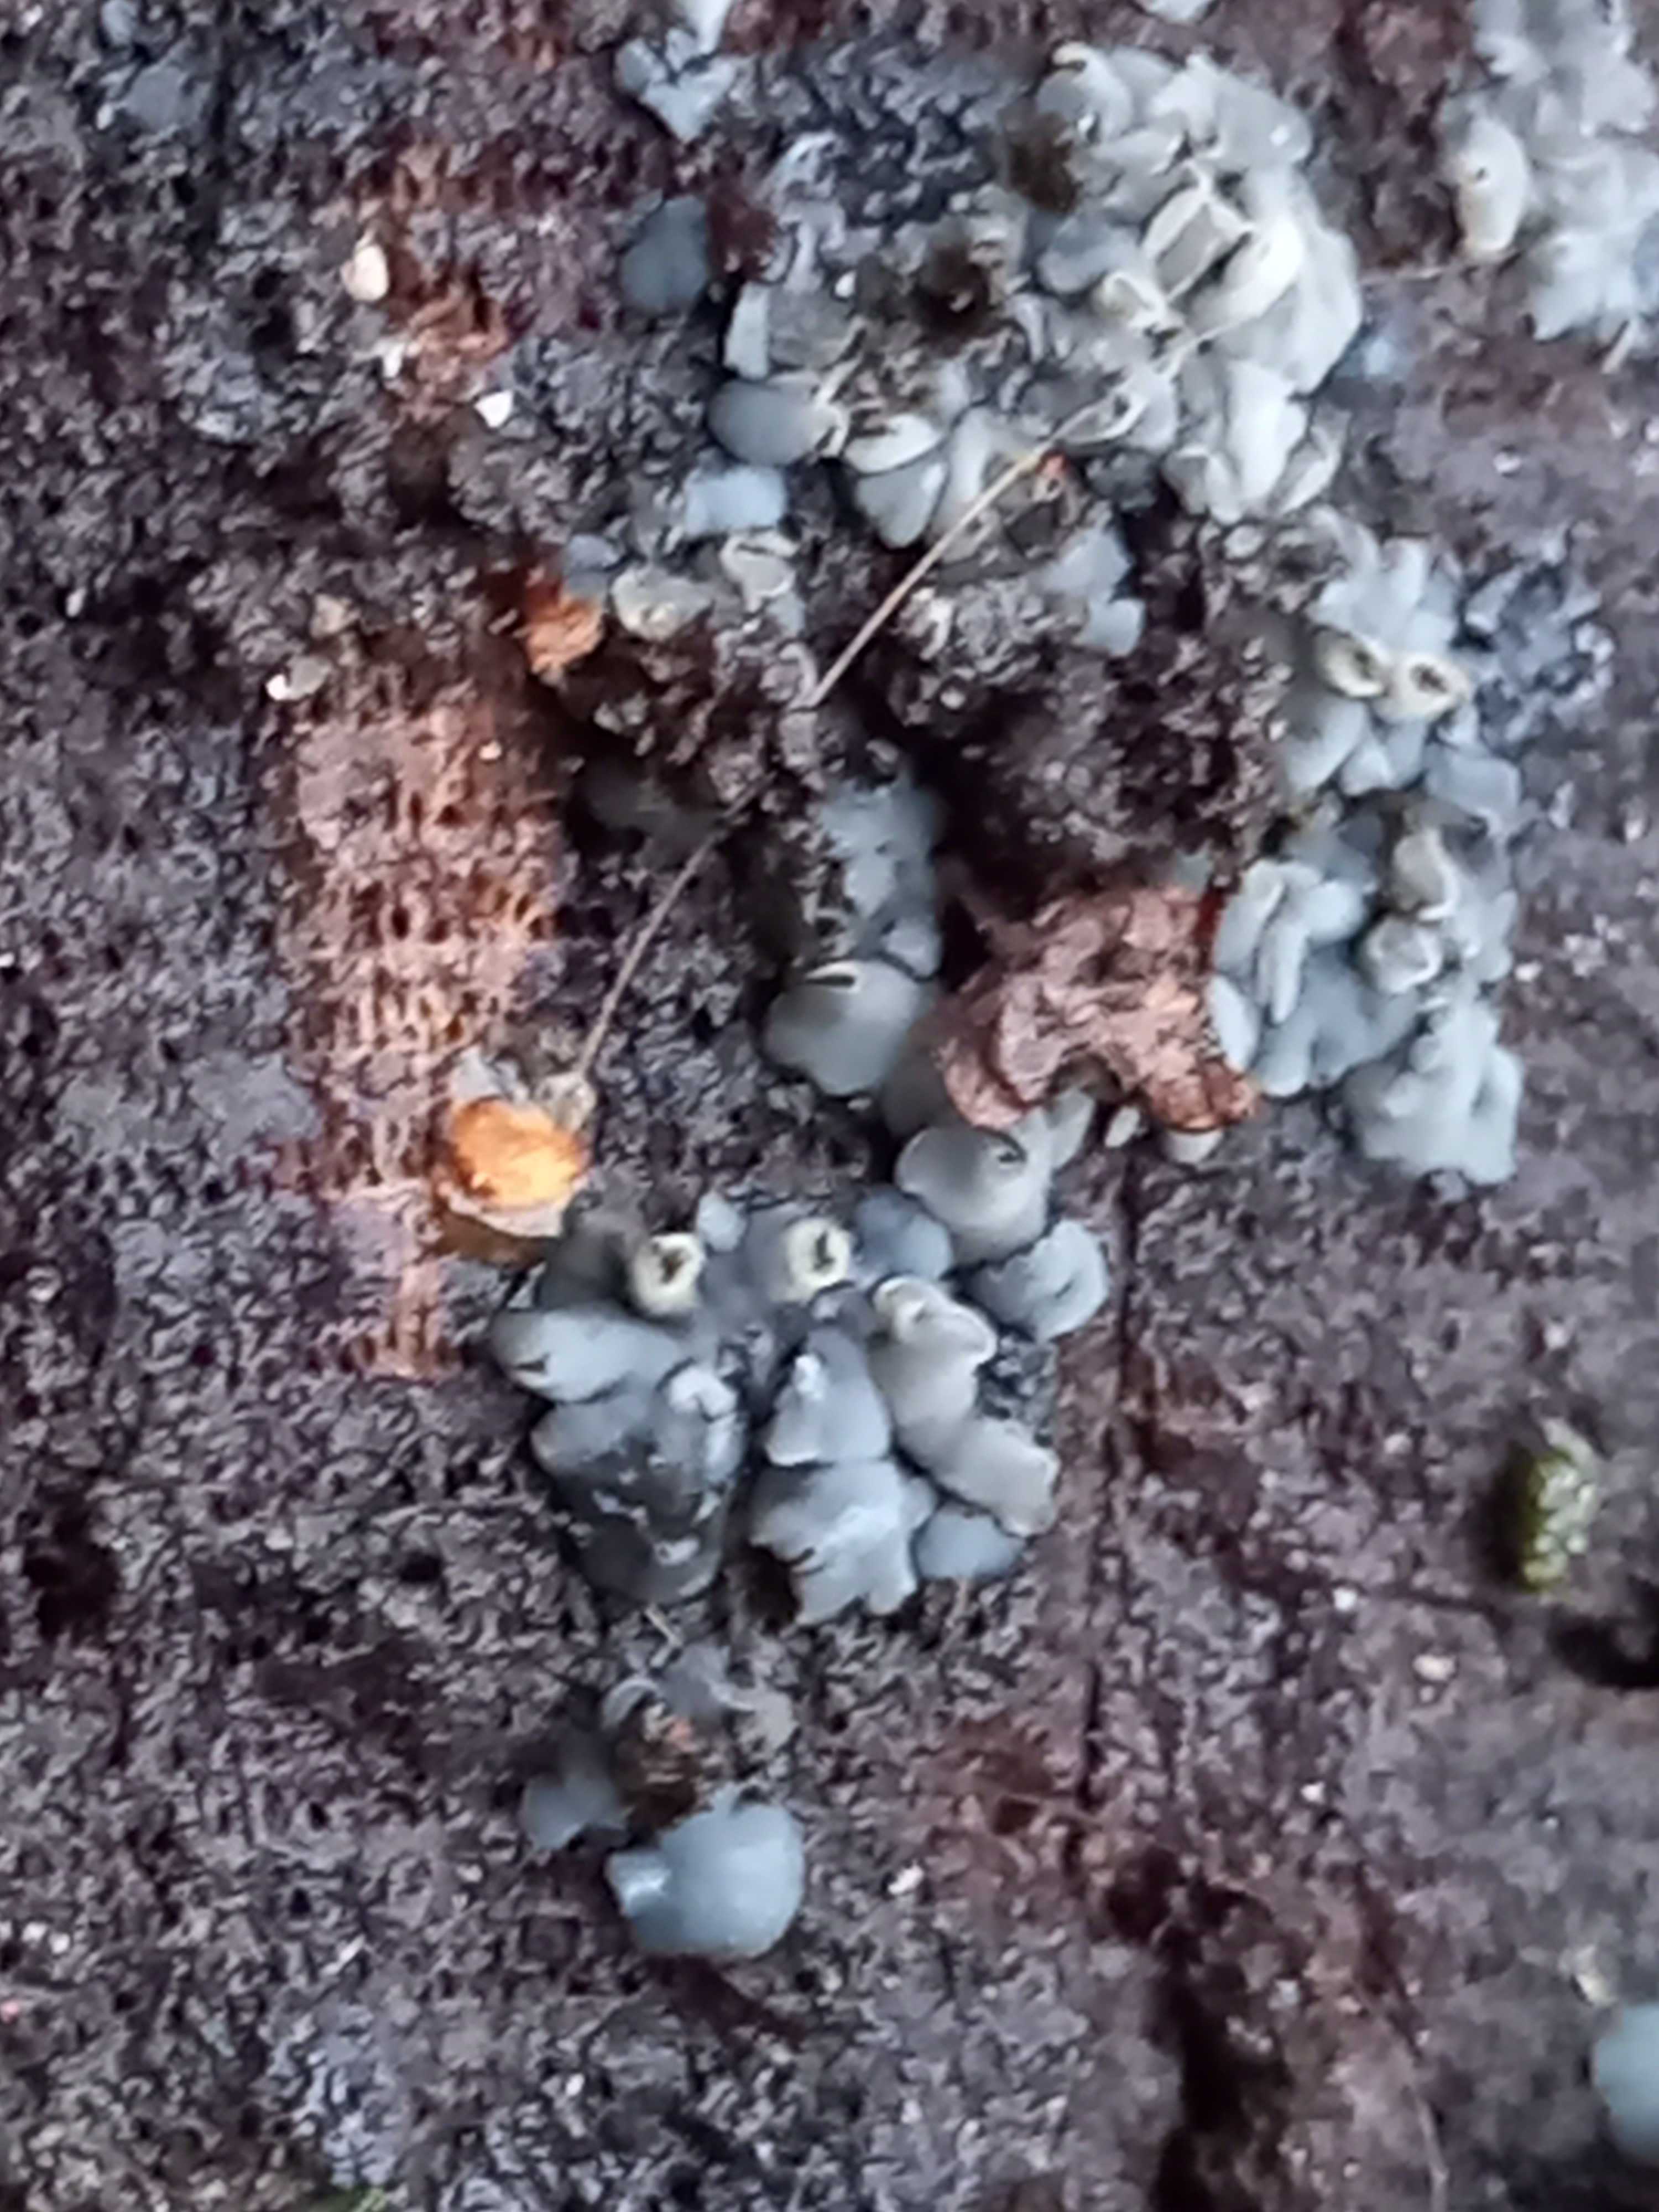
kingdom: Fungi
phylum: Ascomycota
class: Leotiomycetes
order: Helotiales
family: Mollisiaceae
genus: Mollisia
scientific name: Mollisia
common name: gråskive
